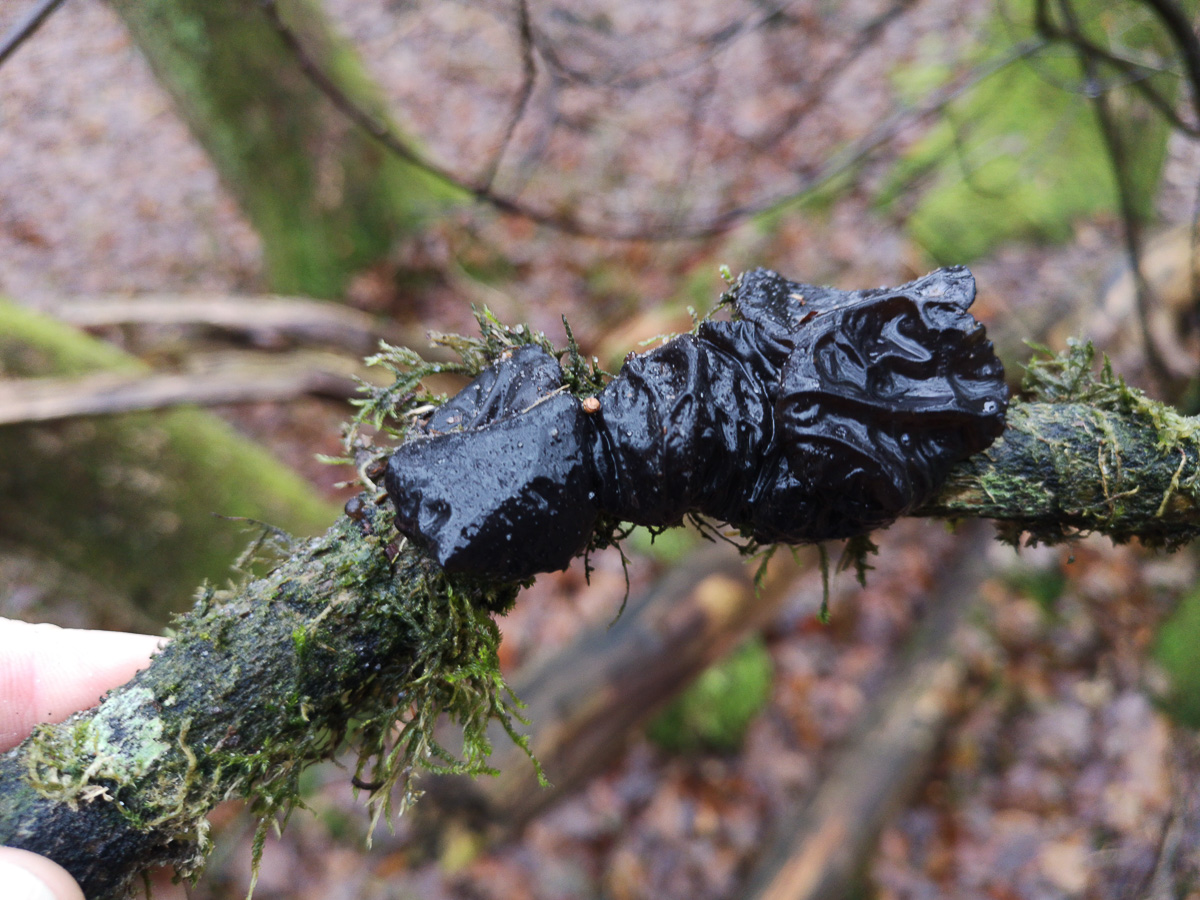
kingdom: Fungi
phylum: Basidiomycota
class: Agaricomycetes
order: Auriculariales
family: Auriculariaceae
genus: Exidia
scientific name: Exidia glandulosa
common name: ege-bævretop
